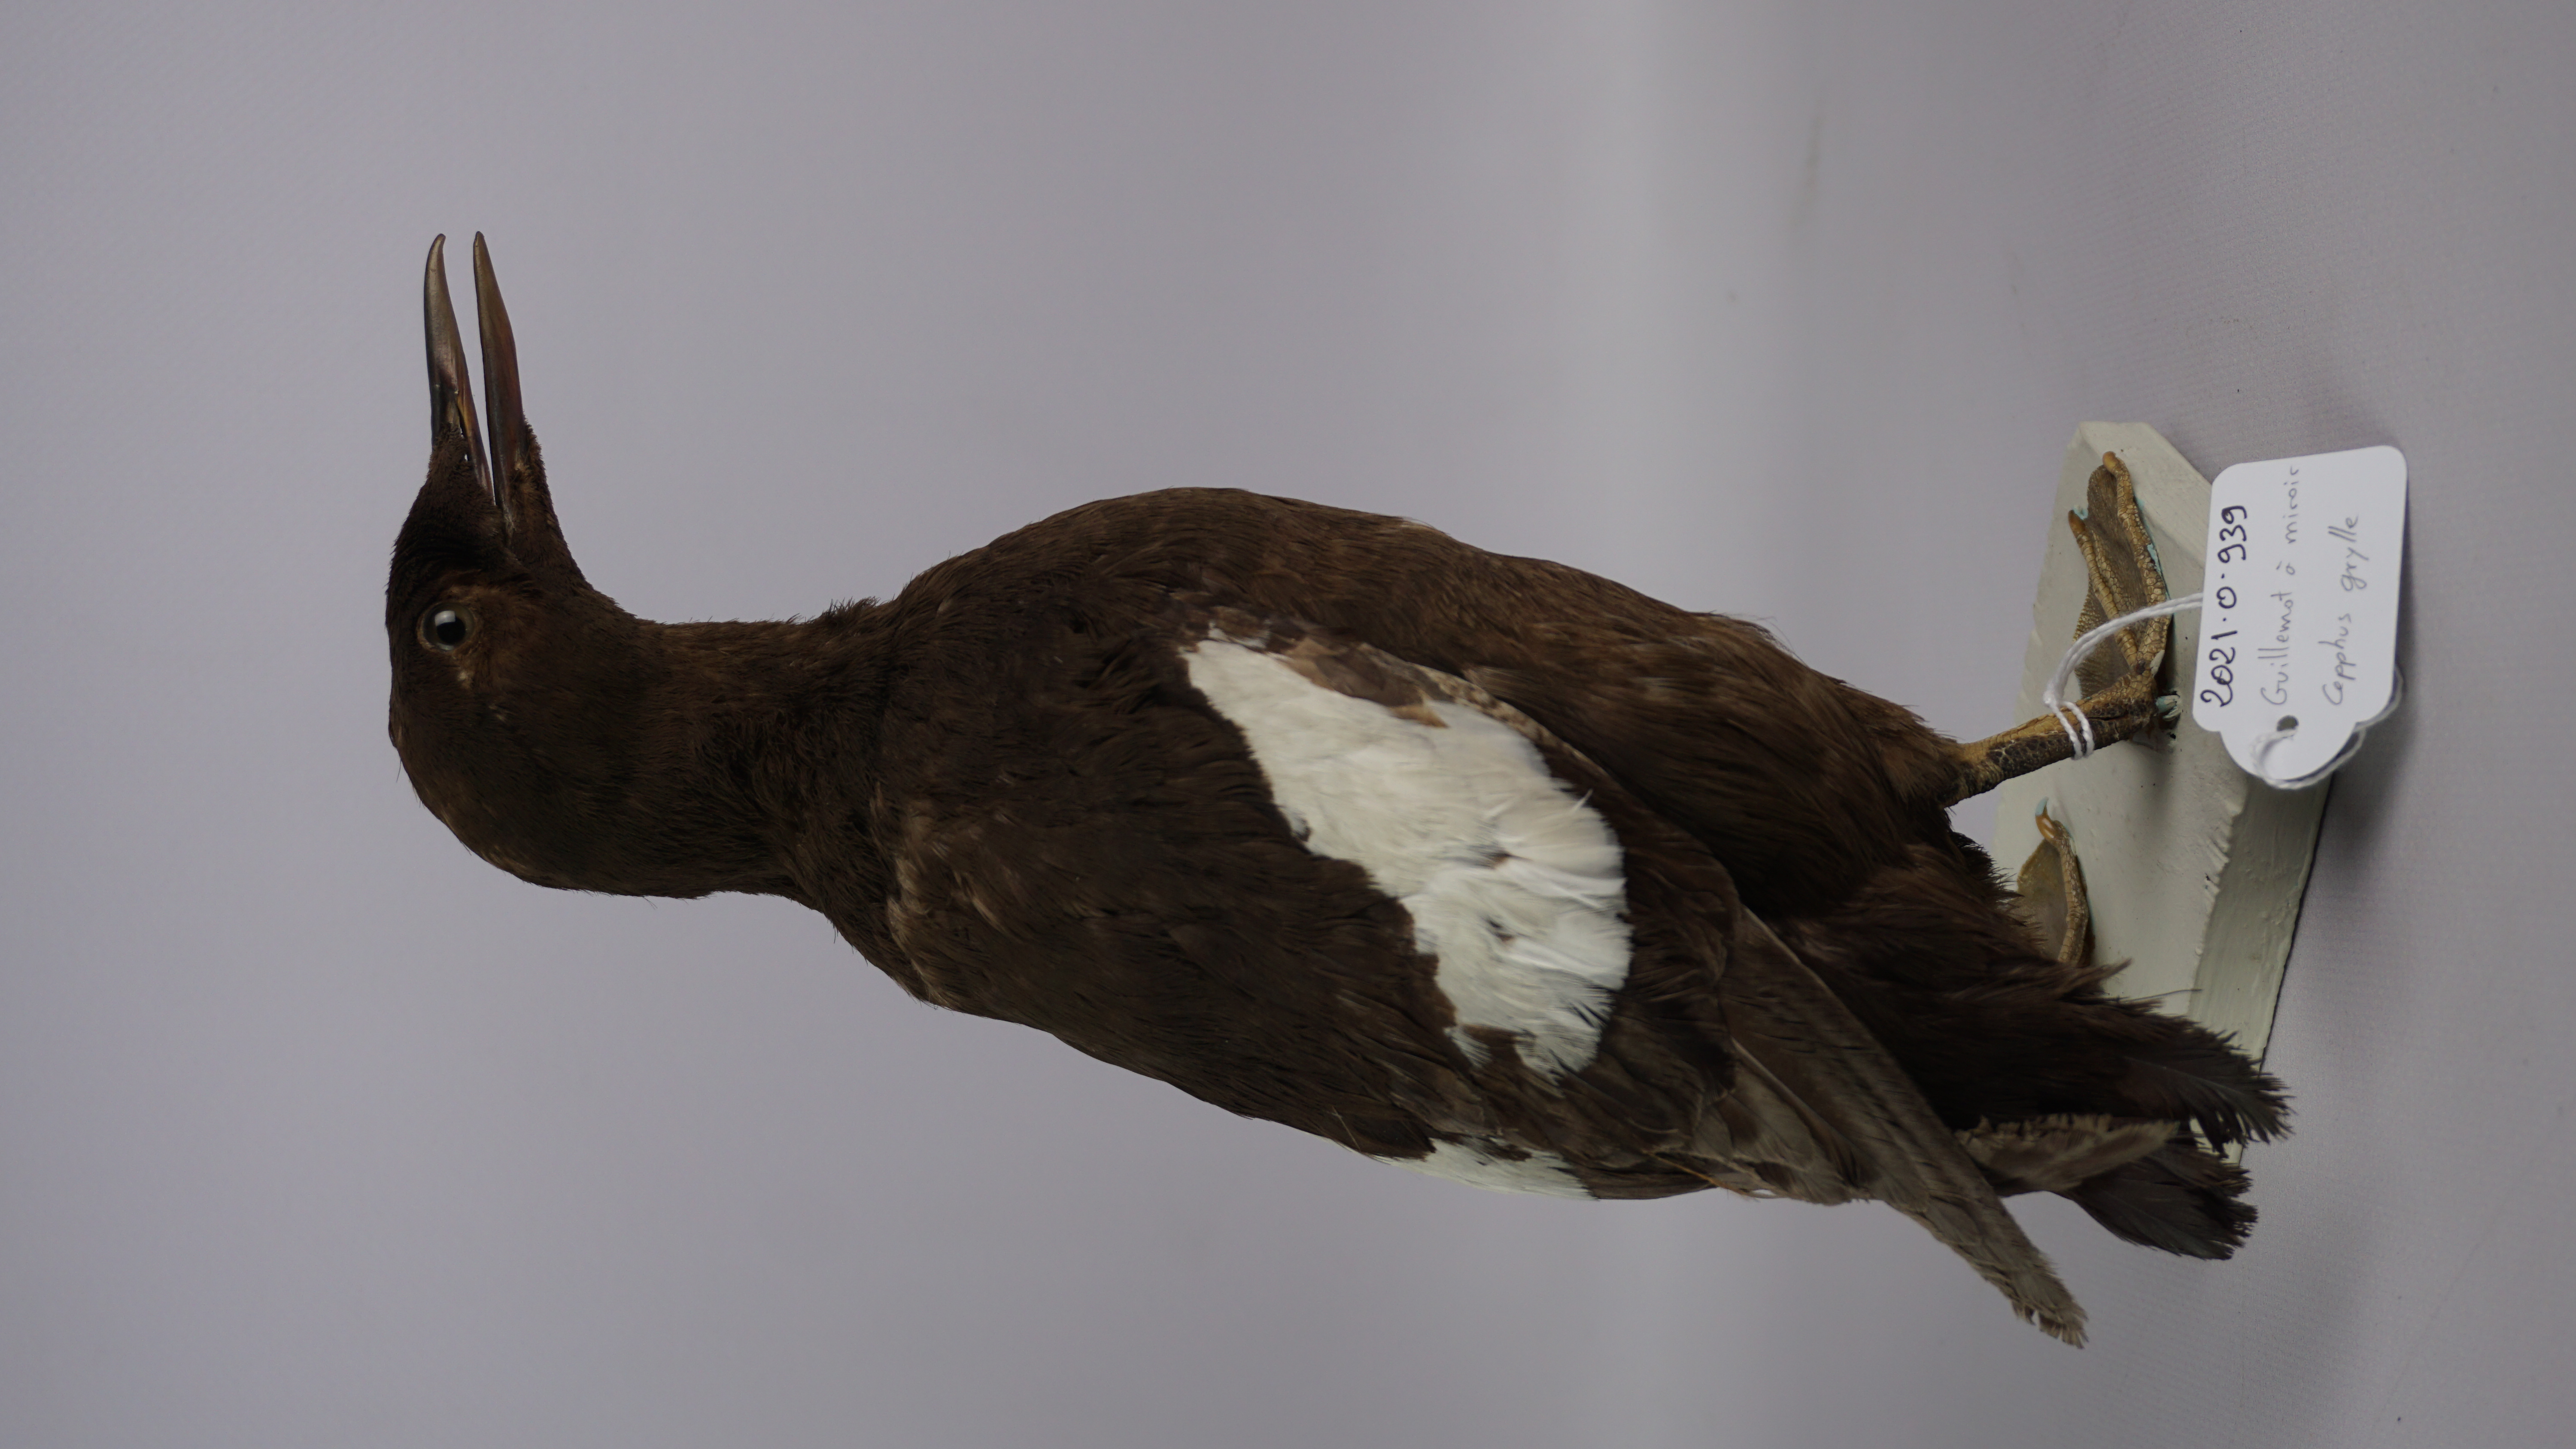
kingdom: Animalia
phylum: Chordata
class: Aves
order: Charadriiformes
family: Alcidae
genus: Cepphus
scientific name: Cepphus grylle
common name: Black guillemot
